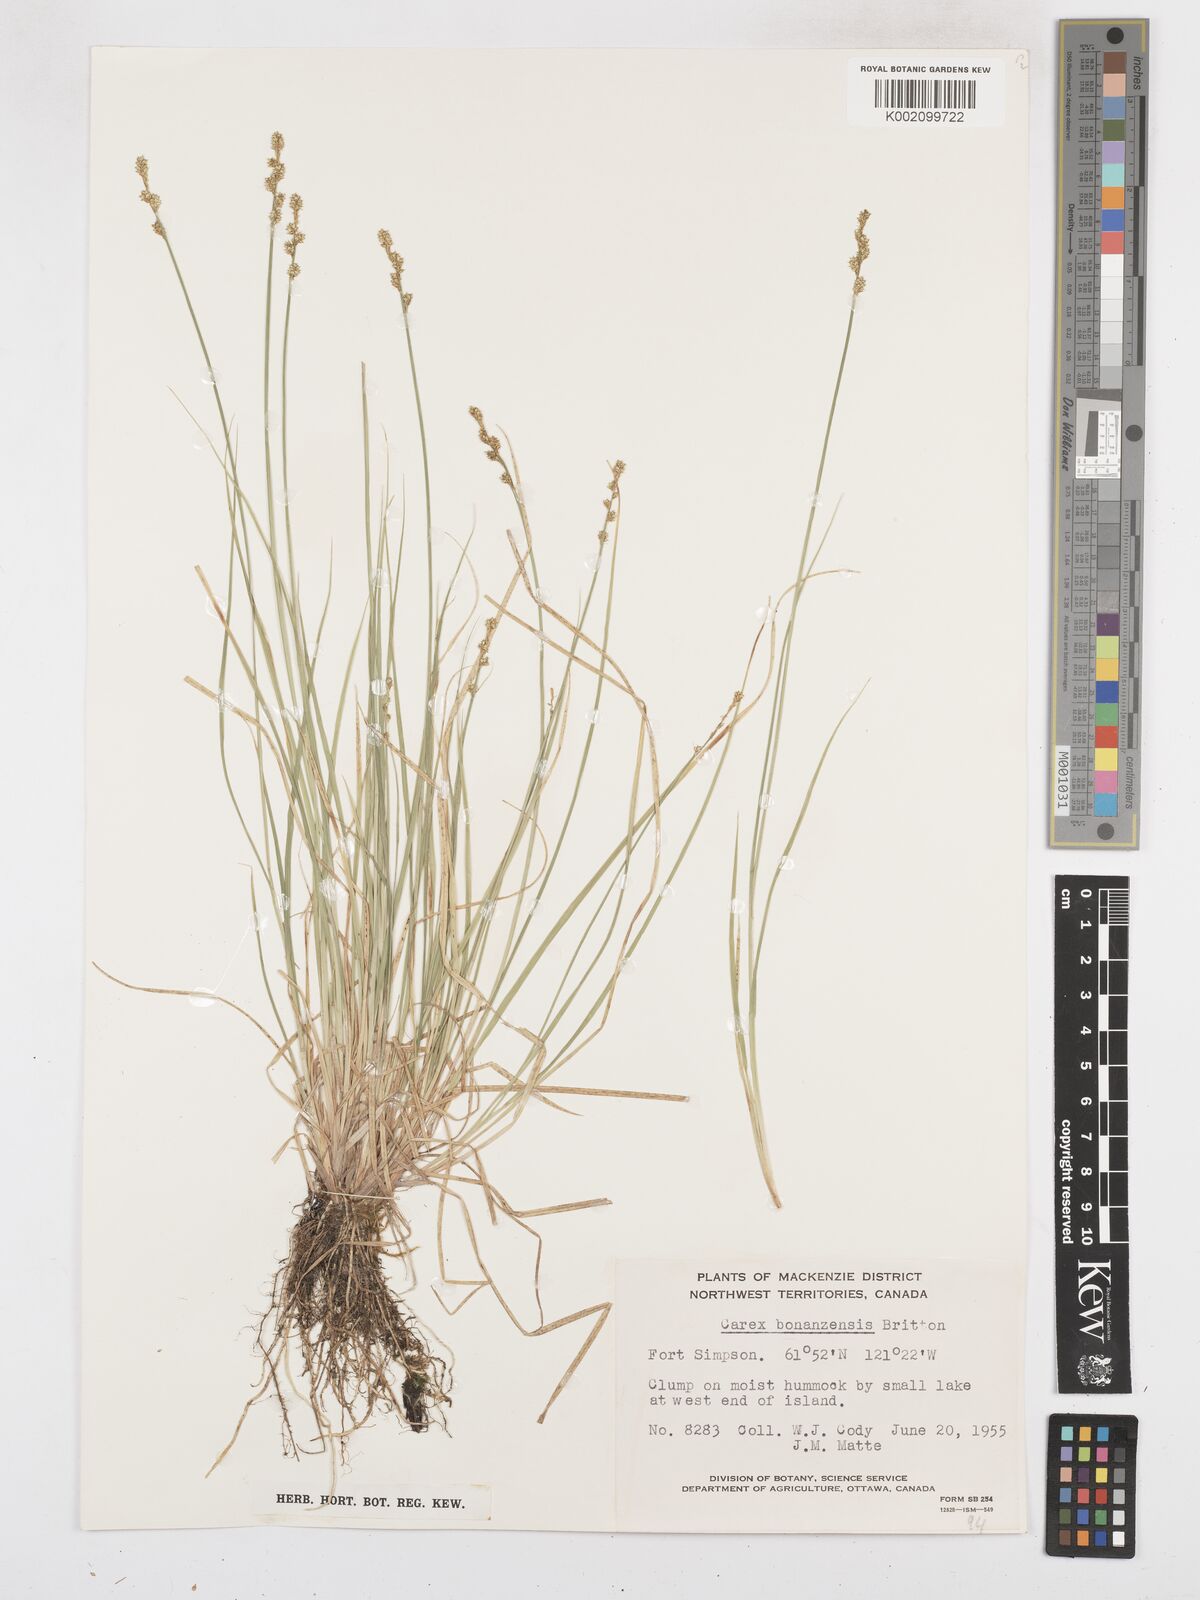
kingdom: Plantae
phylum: Tracheophyta
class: Liliopsida
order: Poales
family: Cyperaceae
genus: Carex
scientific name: Carex bonanzensis
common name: Yukon sedge
